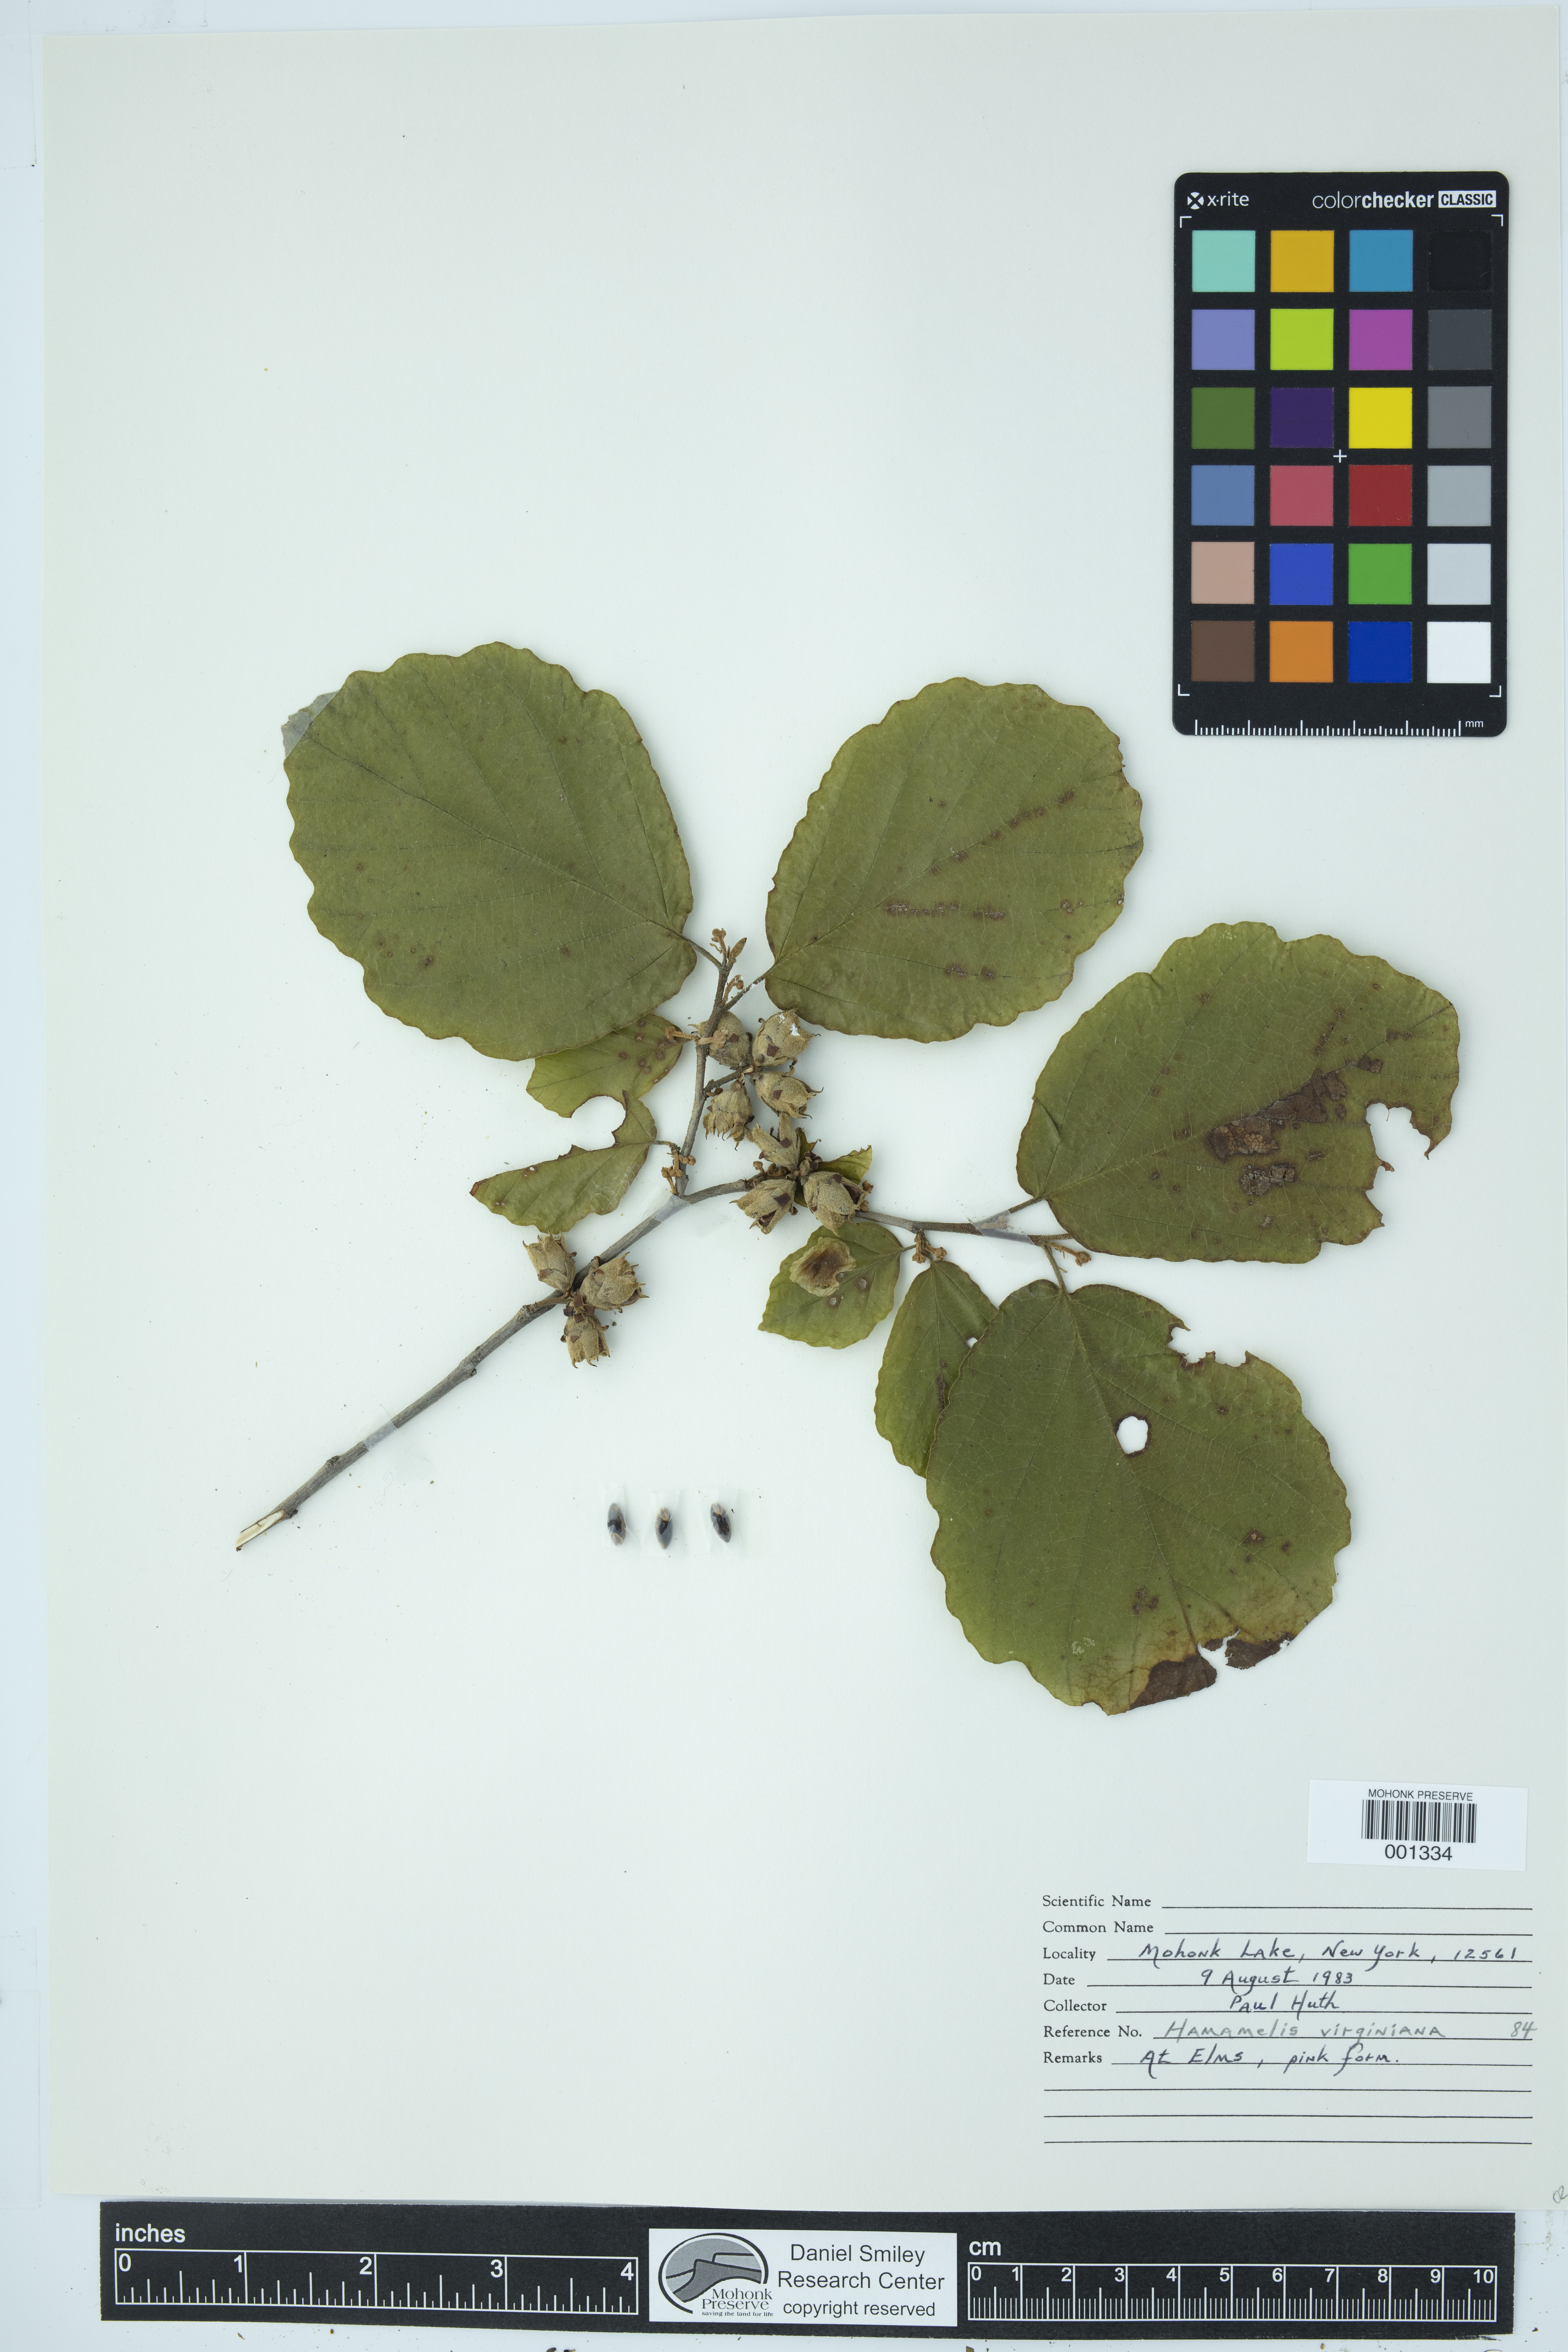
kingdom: Plantae
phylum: Tracheophyta
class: Magnoliopsida
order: Saxifragales
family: Hamamelidaceae
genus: Hamamelis
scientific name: Hamamelis virginiana
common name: Witch-hazel
